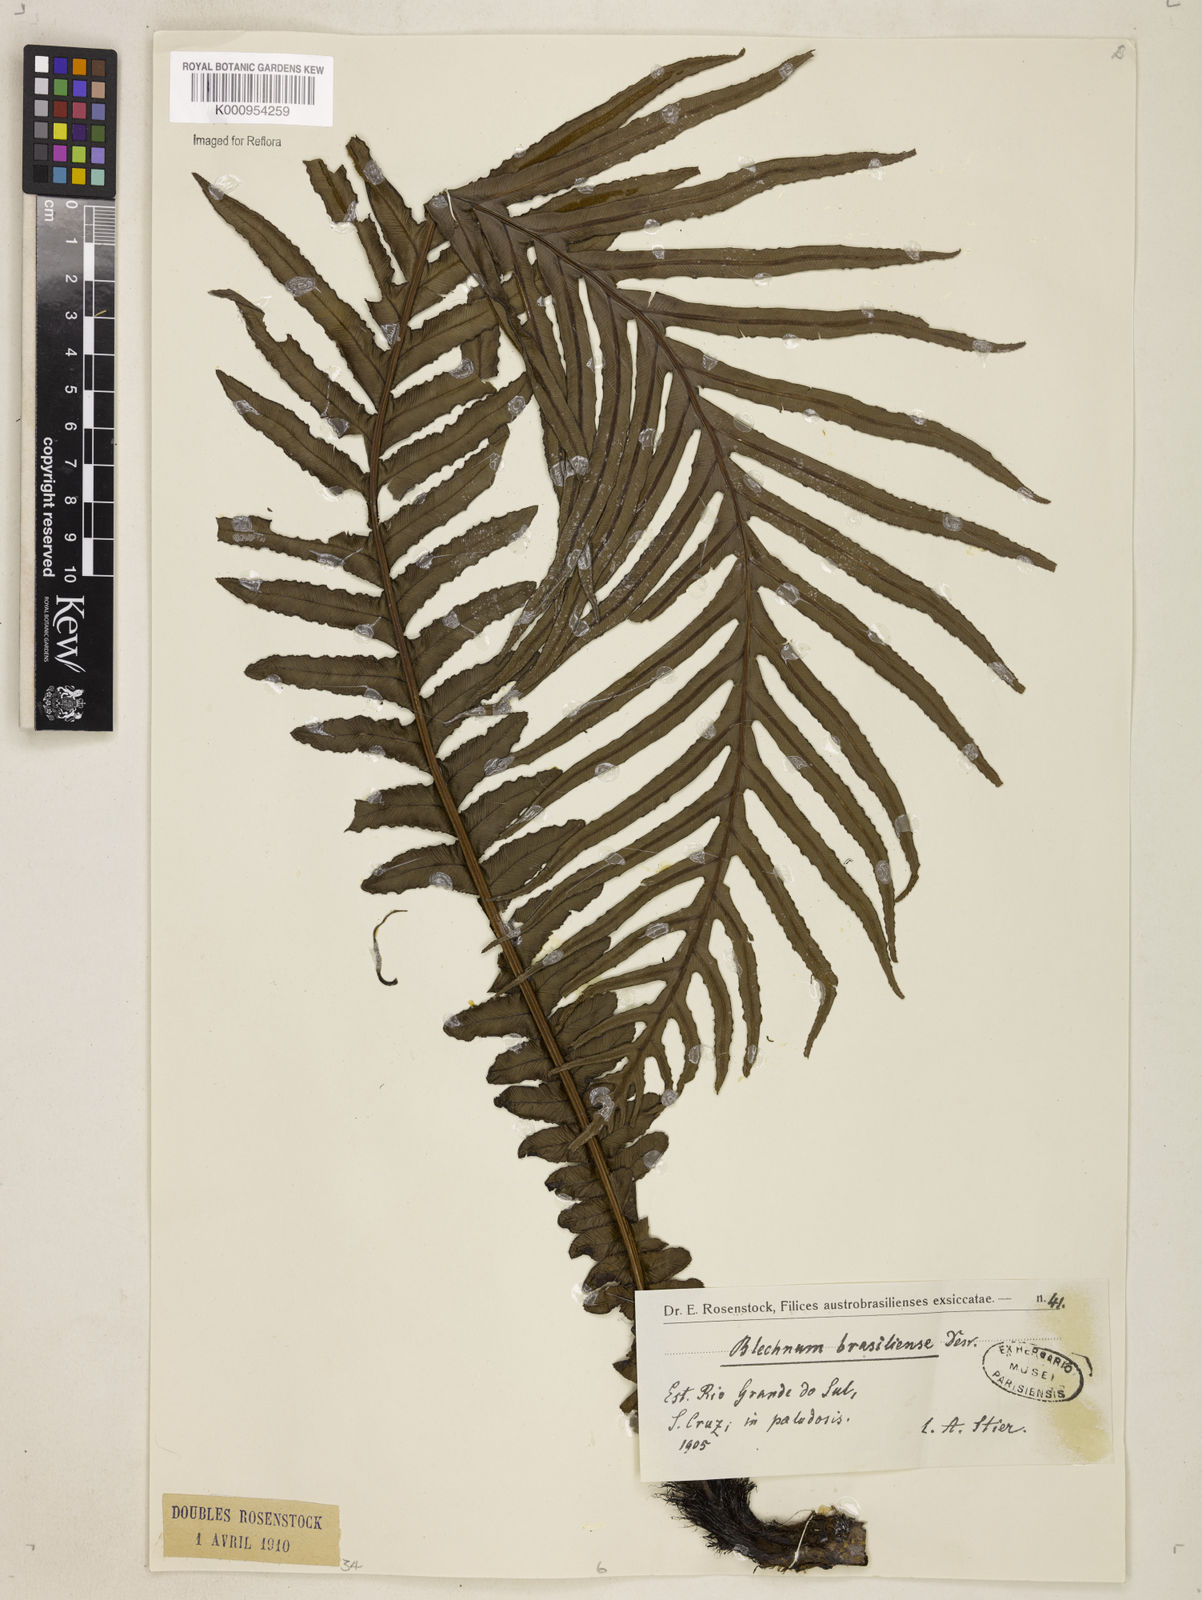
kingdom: Plantae
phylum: Tracheophyta
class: Polypodiopsida
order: Polypodiales
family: Blechnaceae
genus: Neoblechnum
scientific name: Neoblechnum brasiliense
